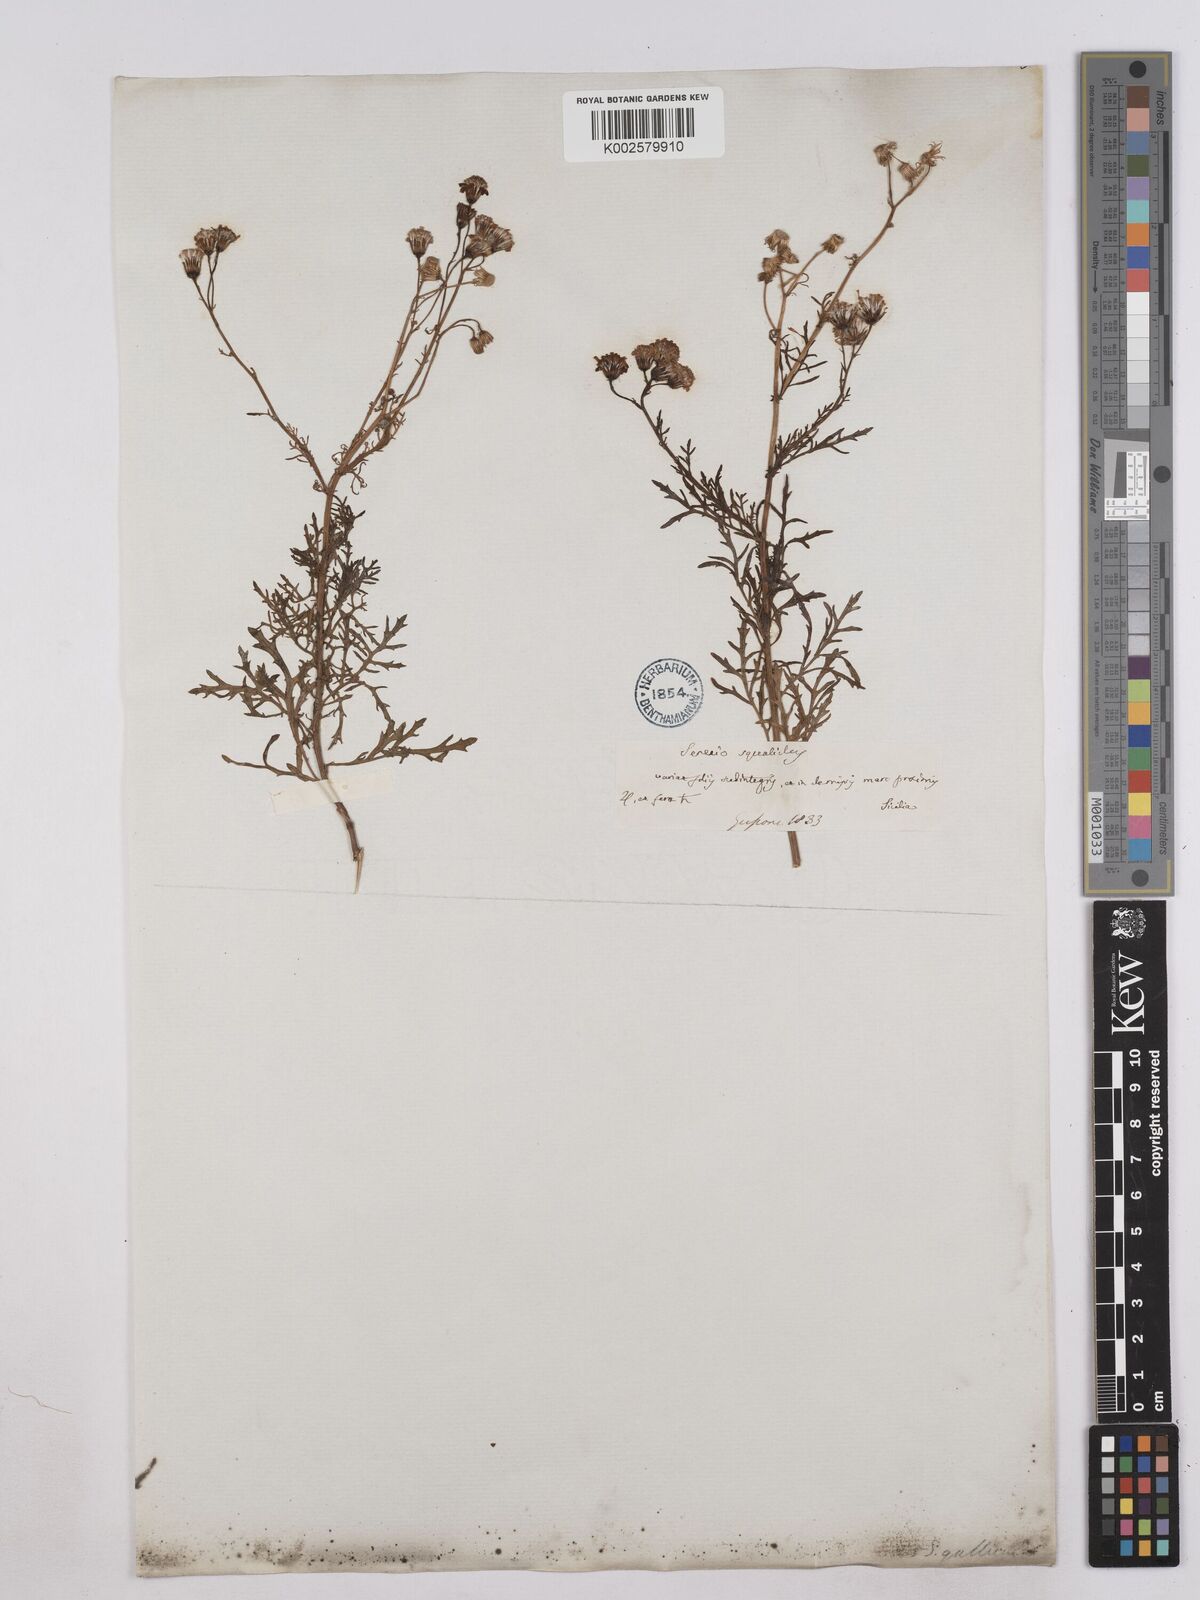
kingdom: Plantae
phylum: Tracheophyta
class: Magnoliopsida
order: Asterales
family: Asteraceae
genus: Senecio
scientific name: Senecio
